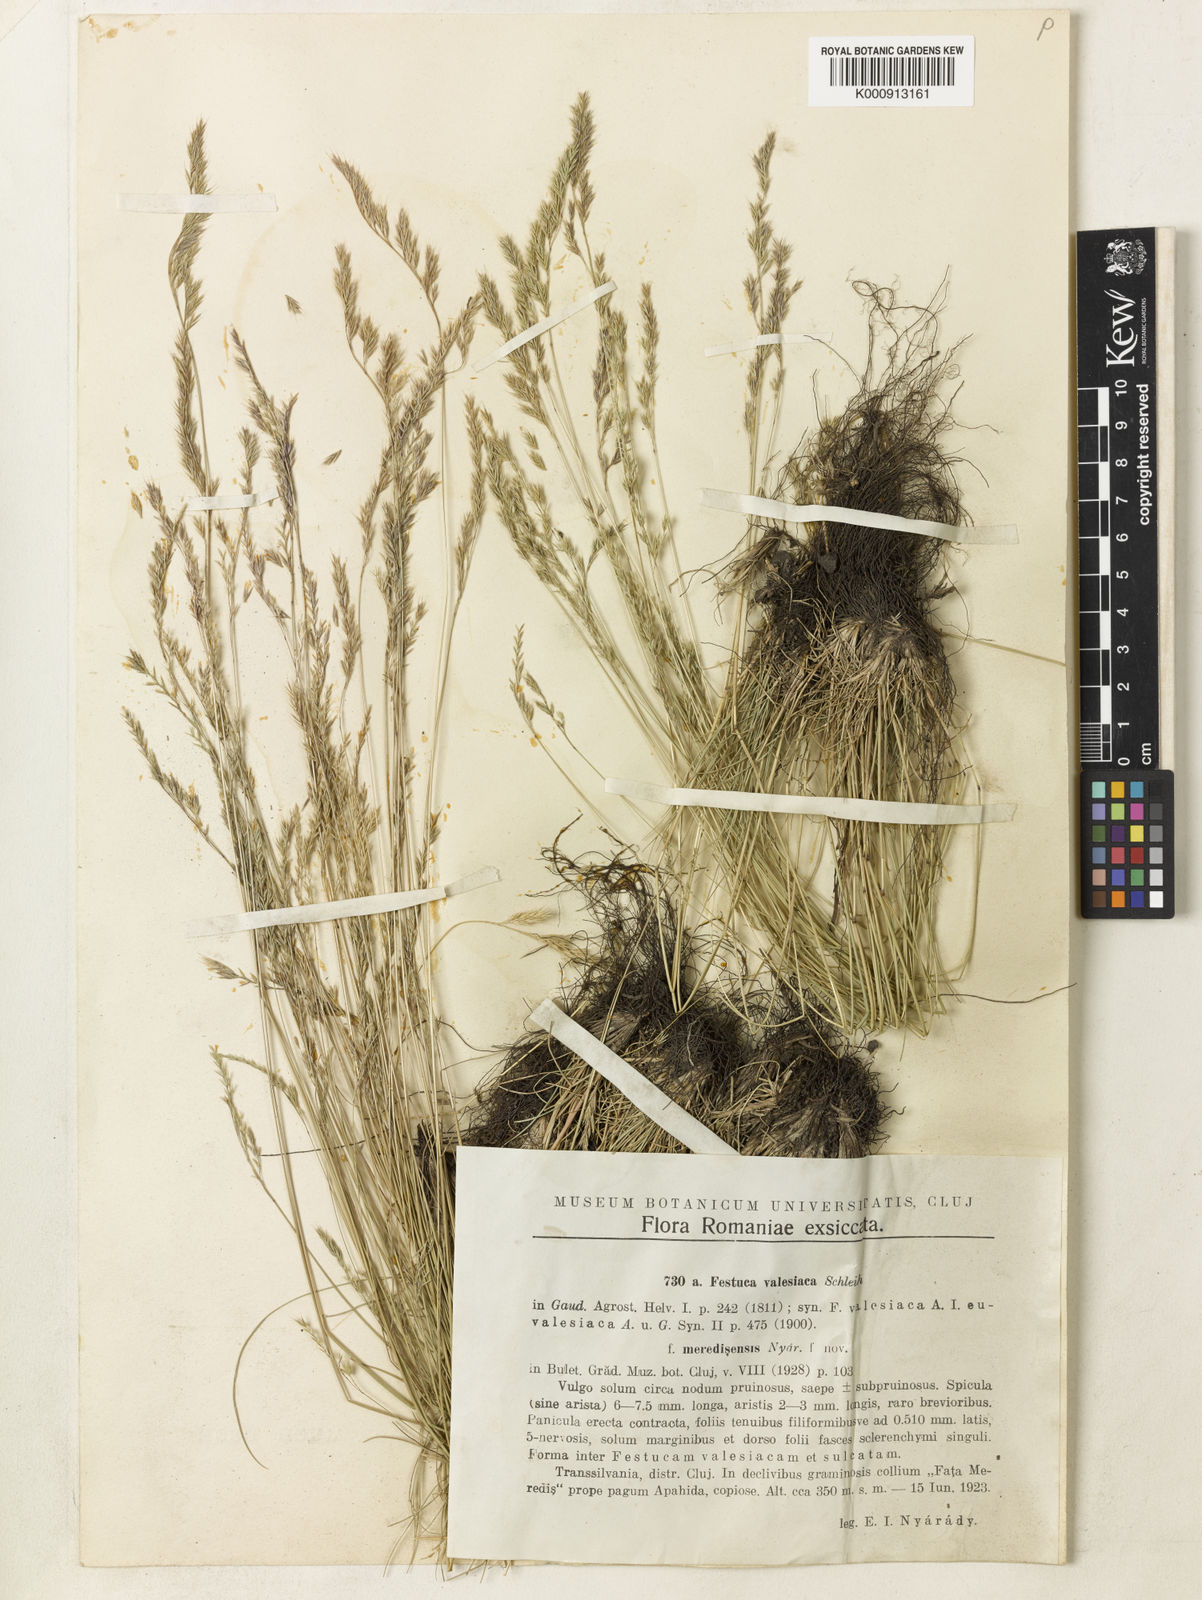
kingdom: Plantae
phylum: Tracheophyta
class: Liliopsida
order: Poales
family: Poaceae
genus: Festuca
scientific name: Festuca
